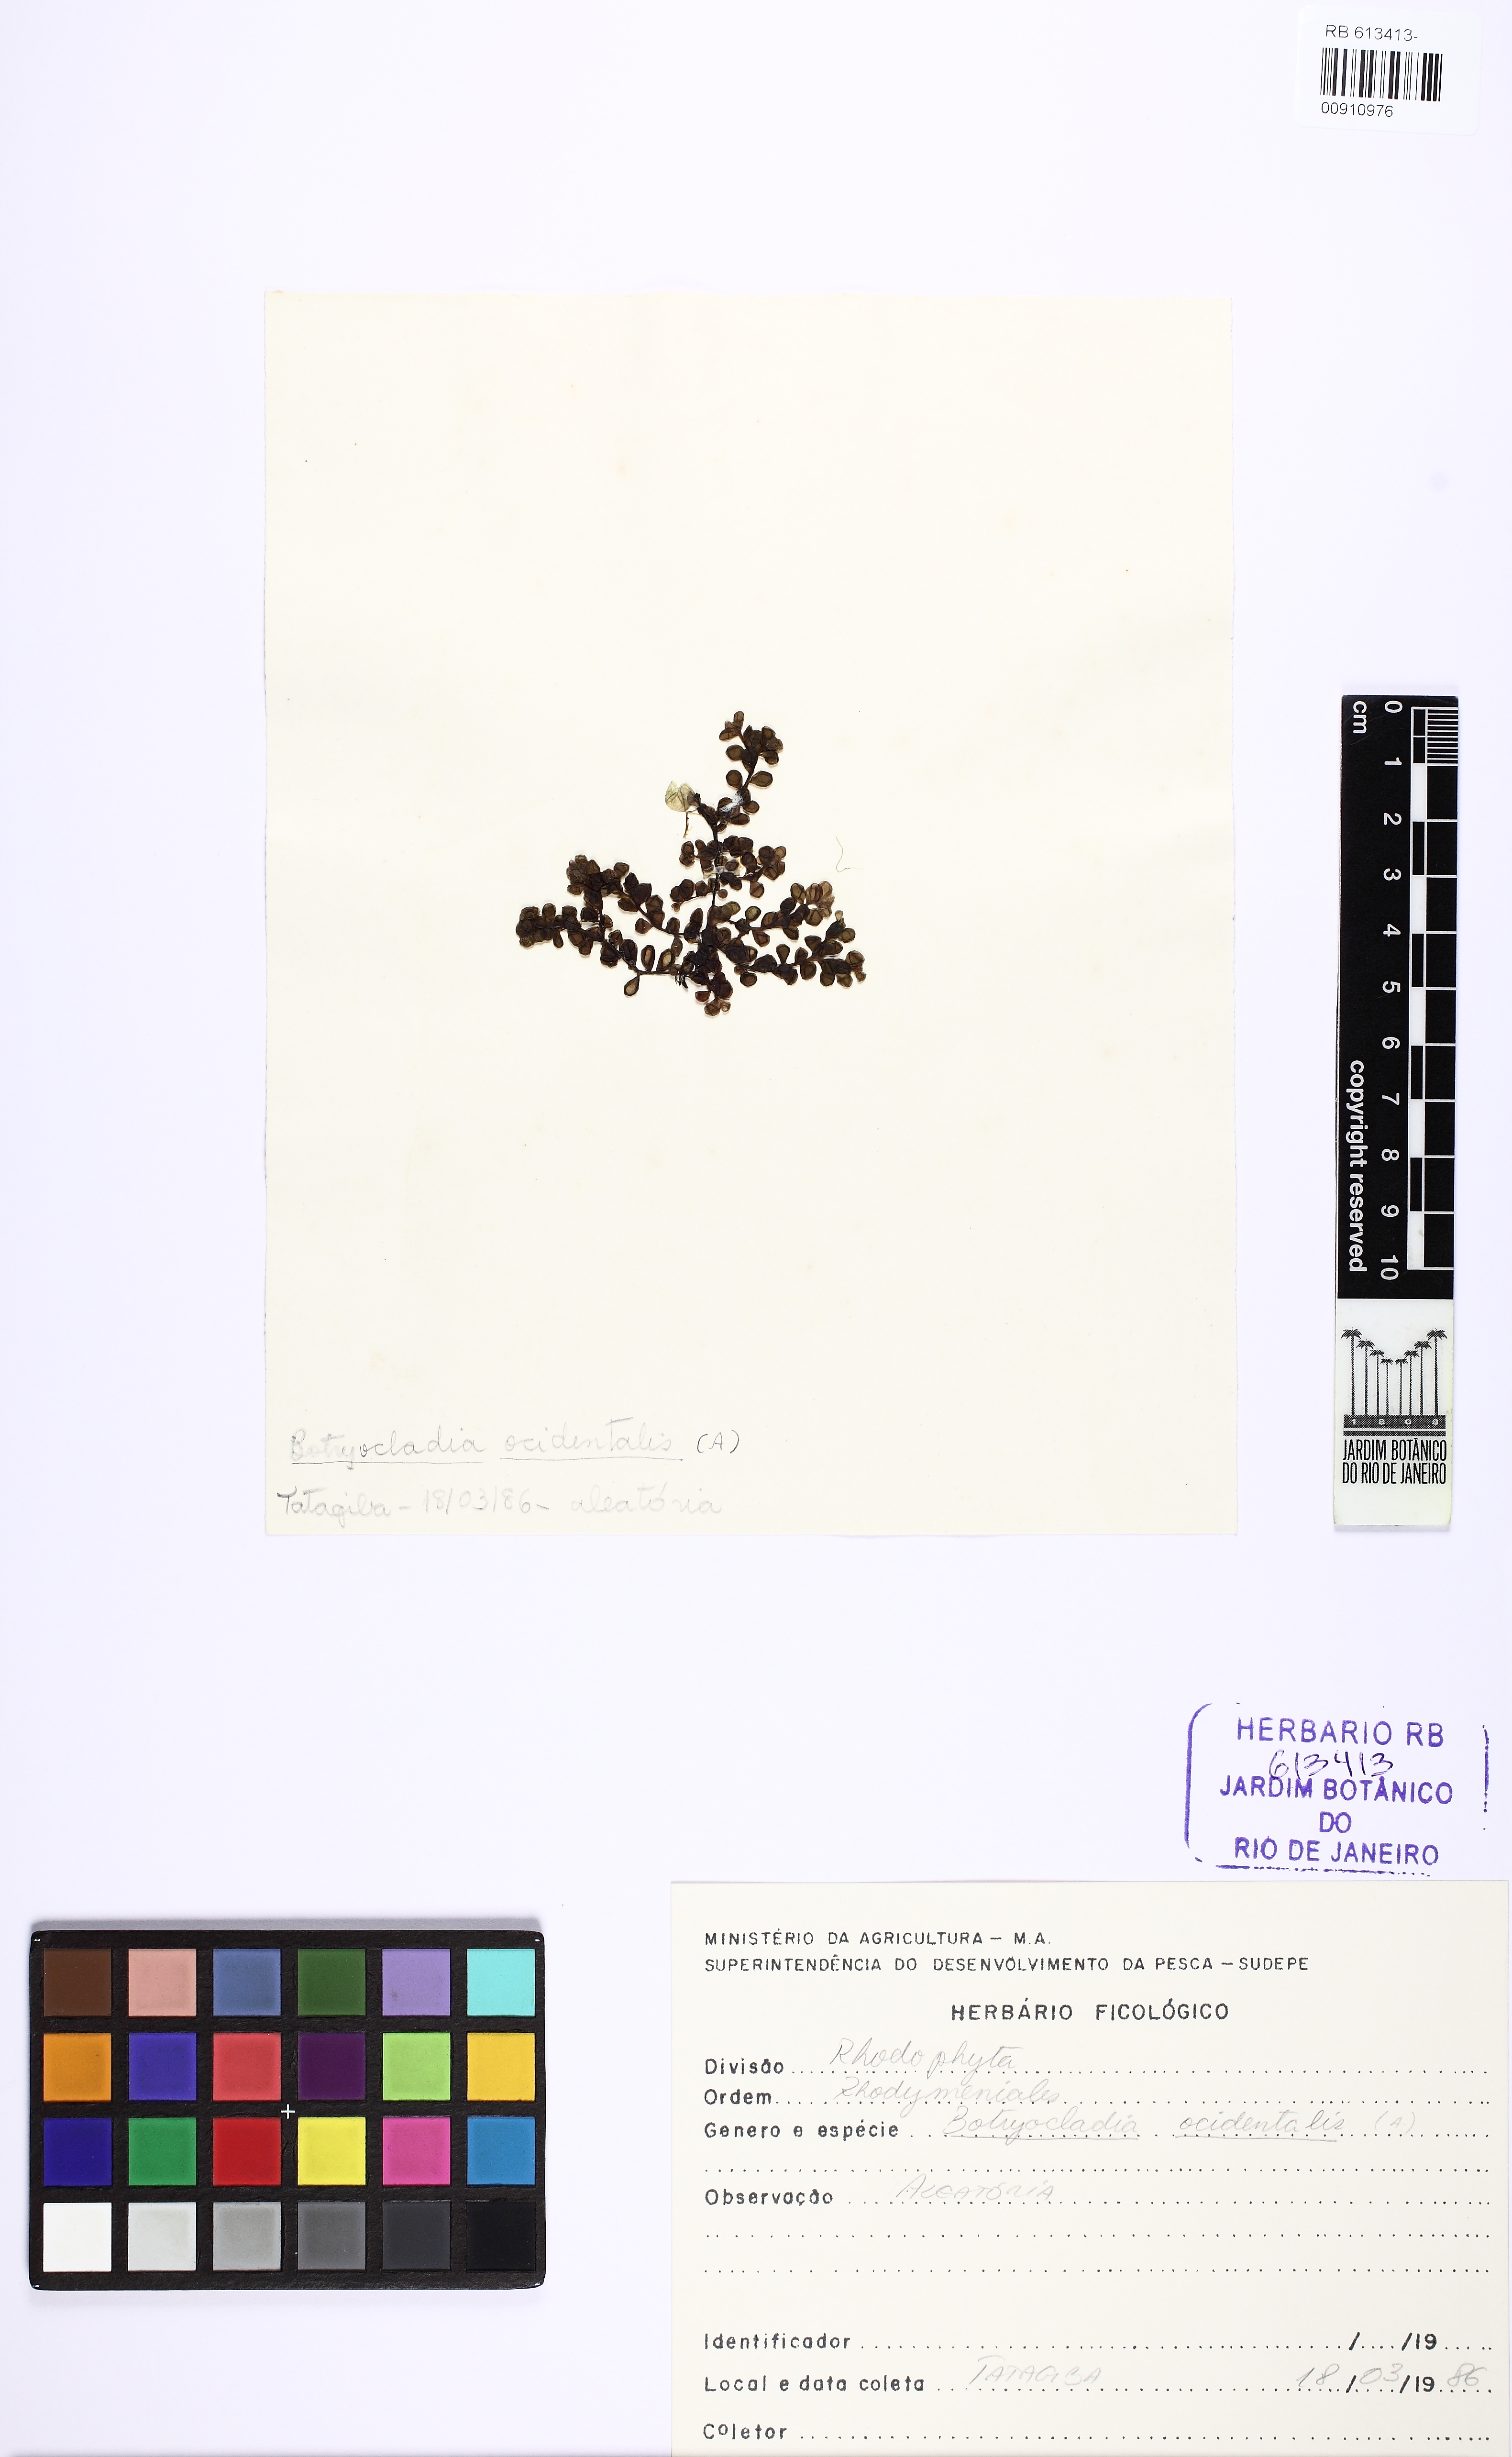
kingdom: Plantae
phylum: Rhodophyta
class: Florideophyceae
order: Rhodymeniales
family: Rhodymeniaceae
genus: Botryocladia
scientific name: Botryocladia occidentalis
